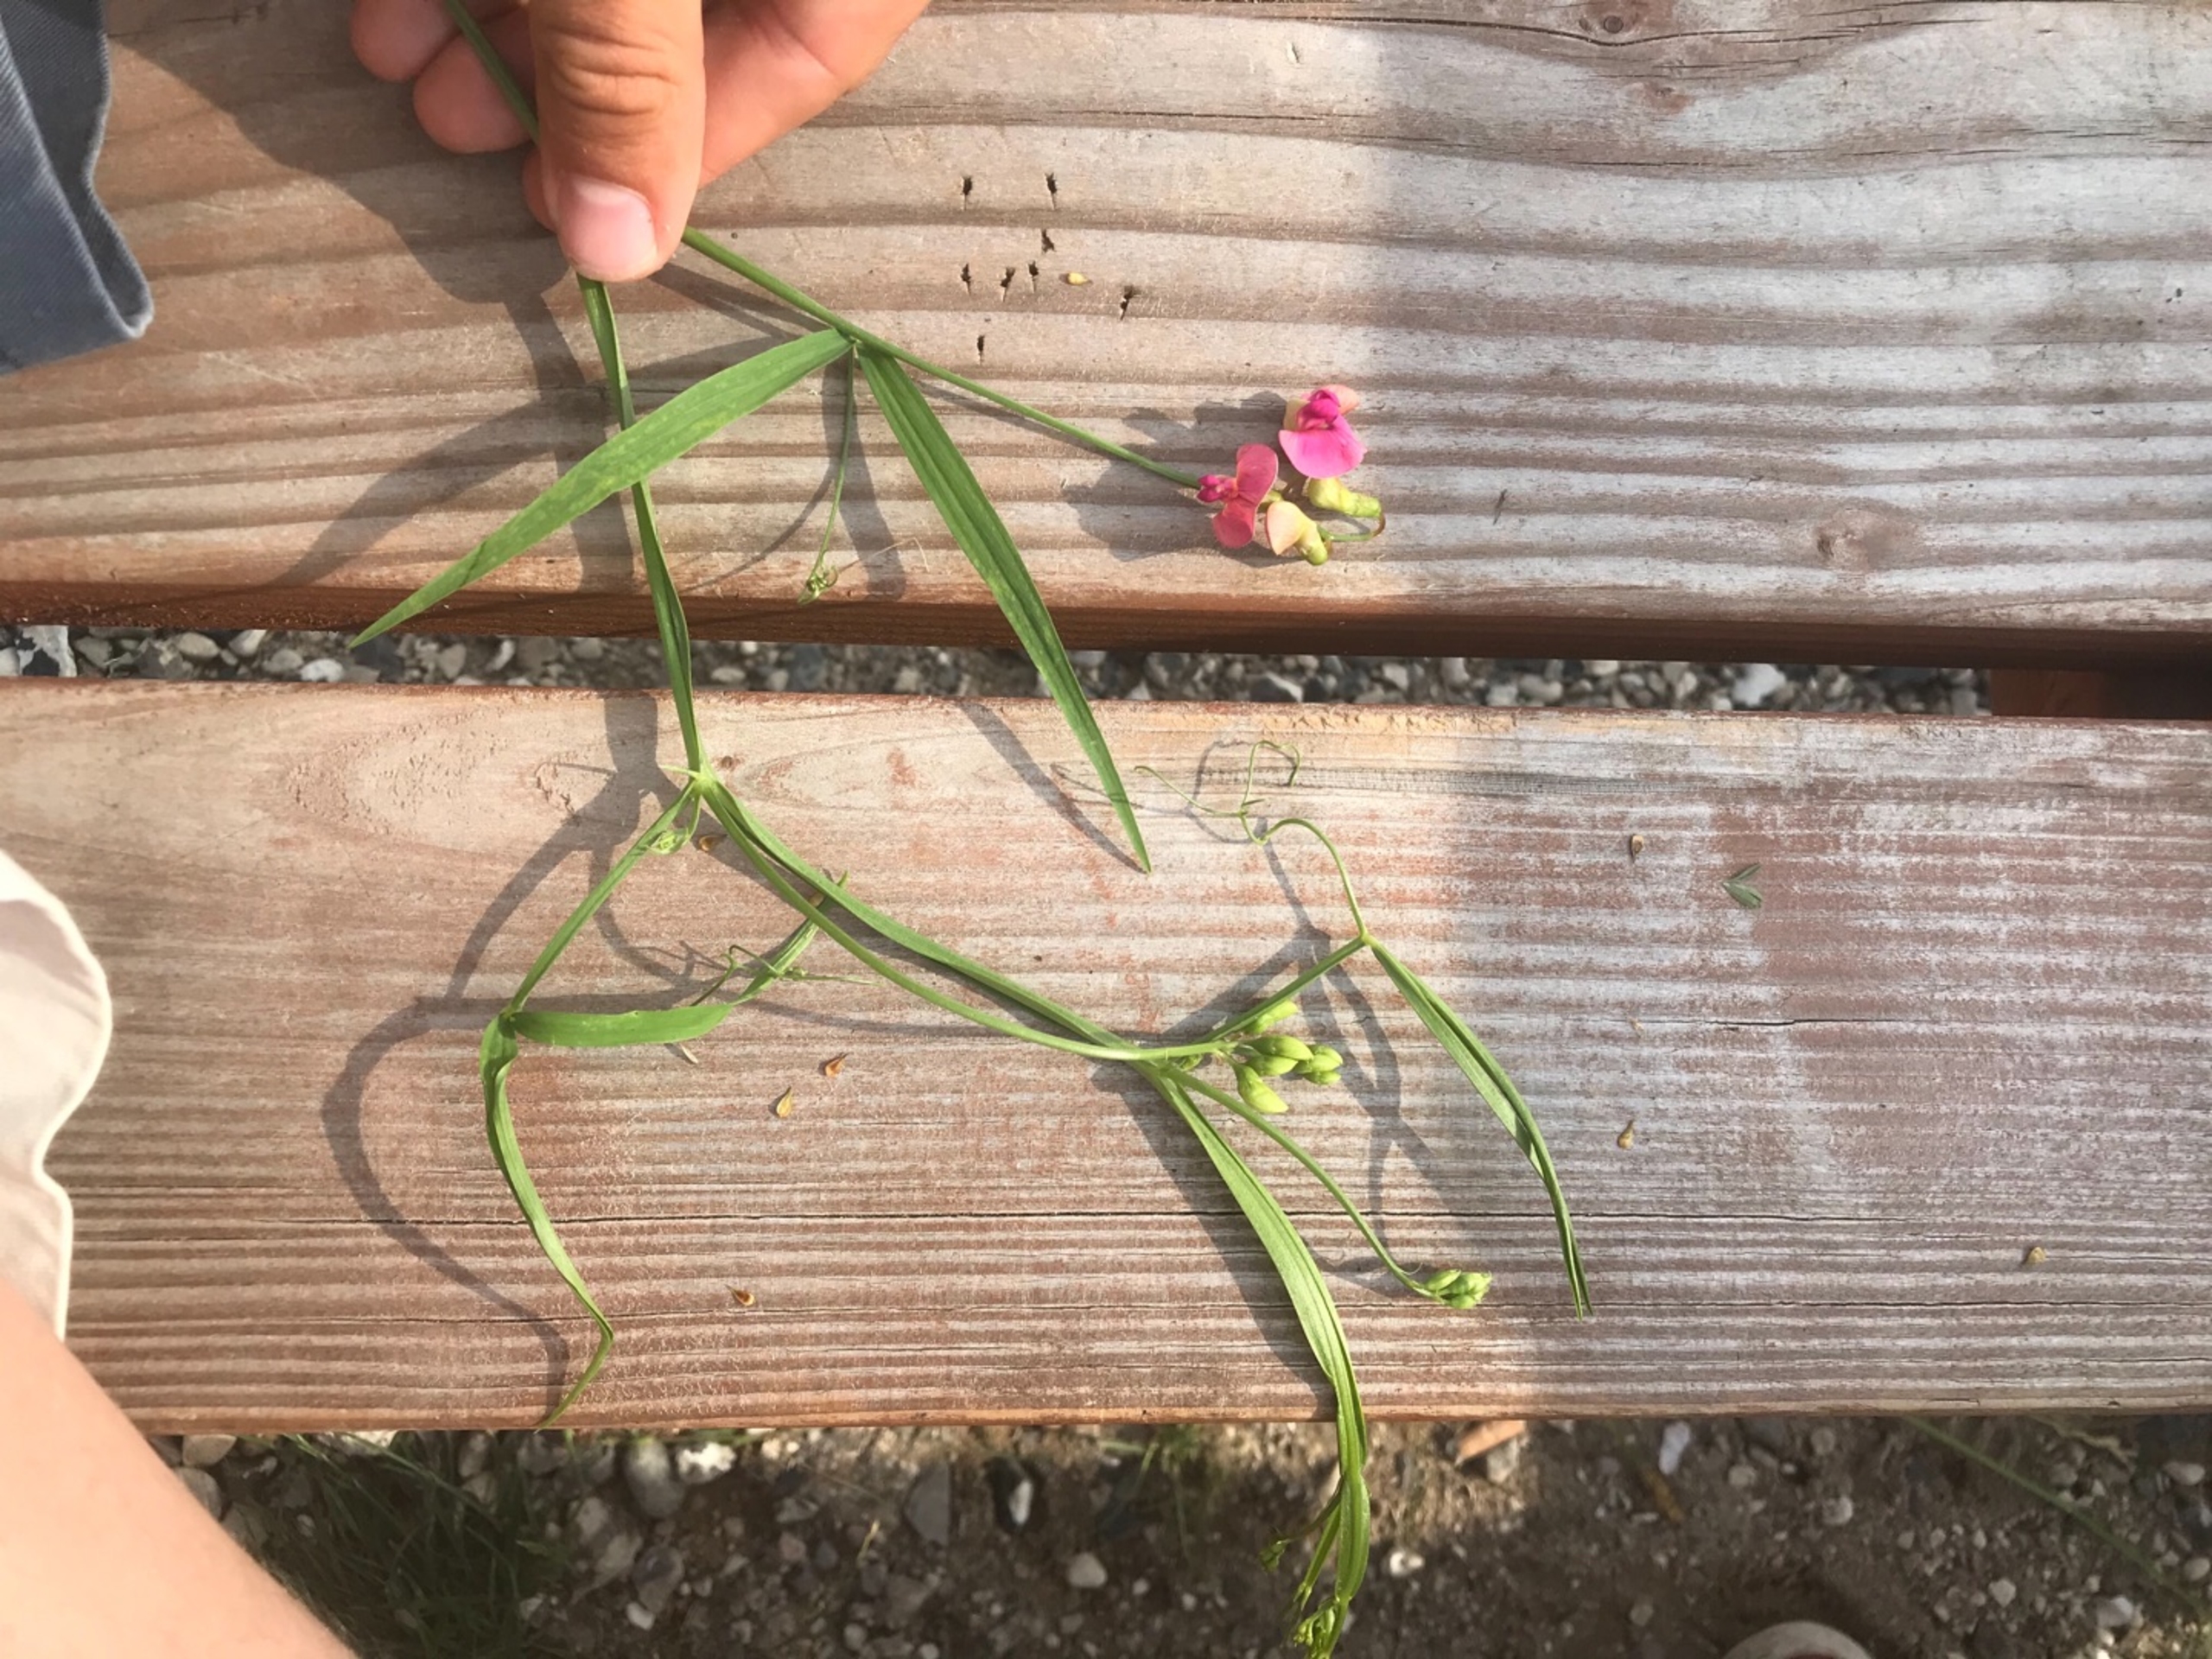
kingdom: Plantae
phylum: Tracheophyta
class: Magnoliopsida
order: Fabales
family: Fabaceae
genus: Lathyrus
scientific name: Lathyrus sylvestris
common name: Skov-fladbælg
